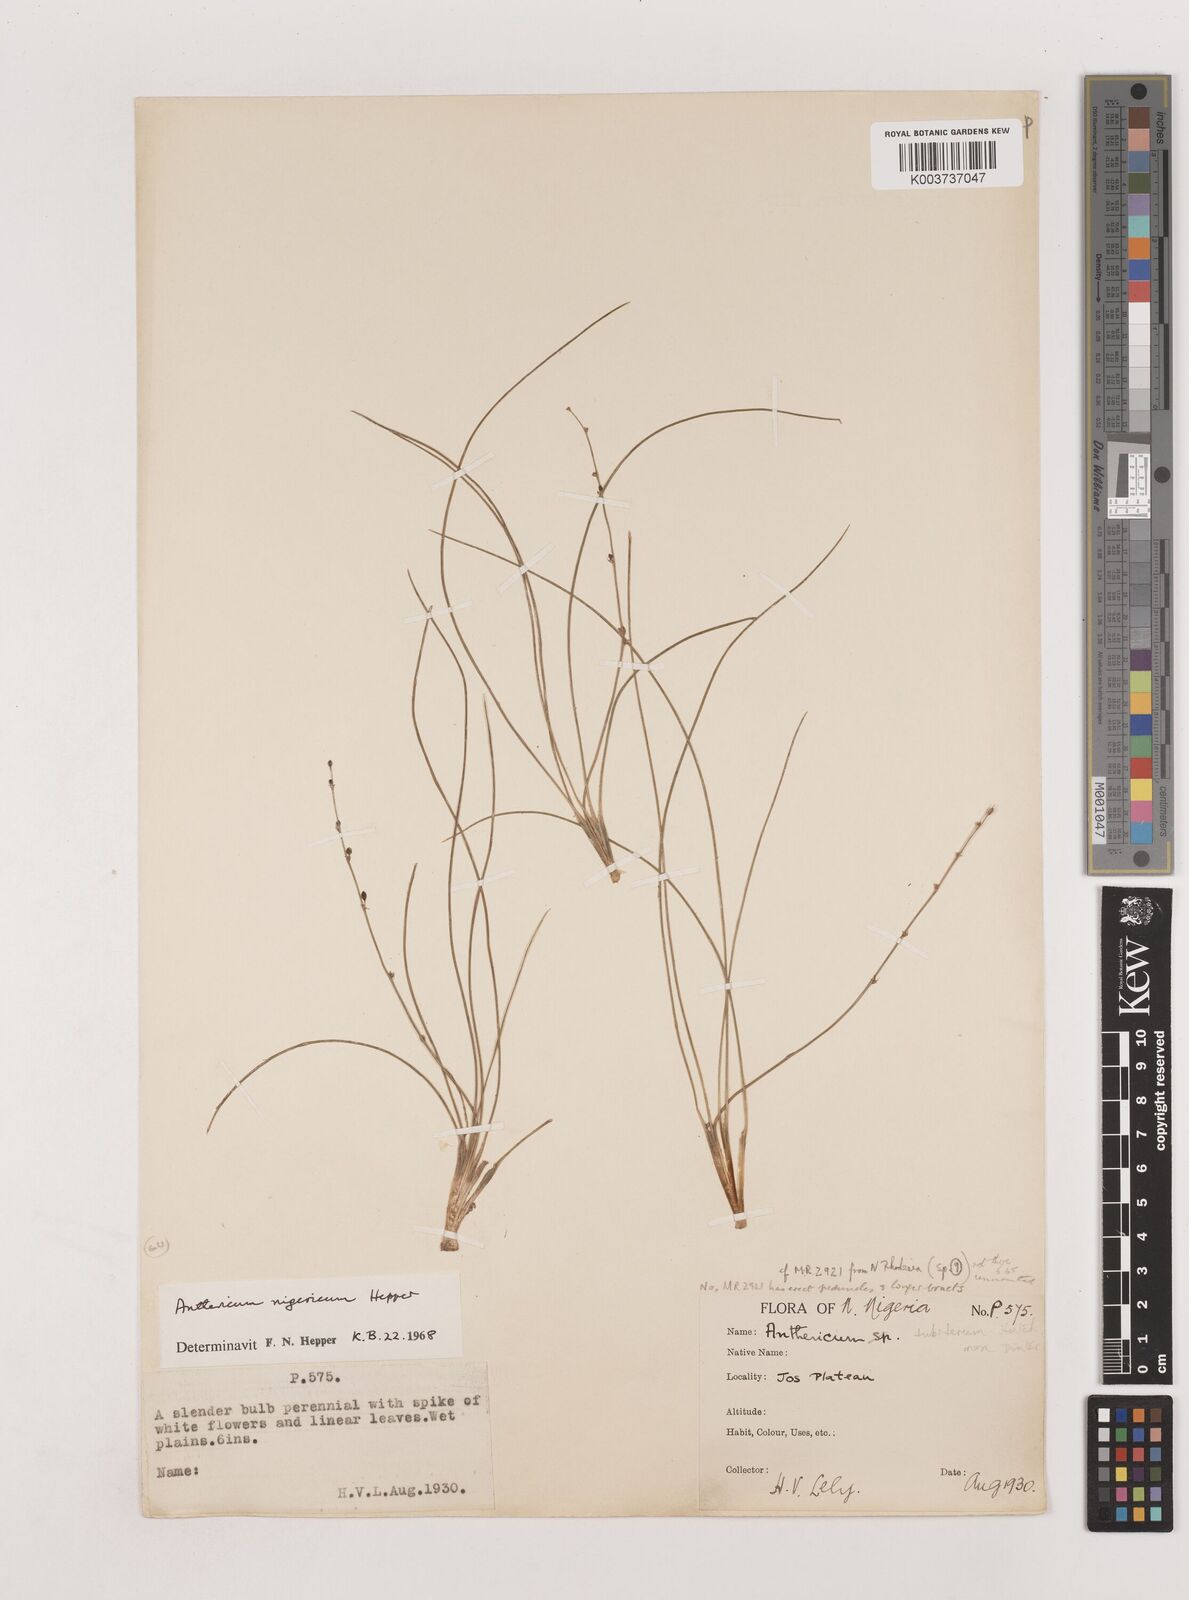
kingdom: Plantae
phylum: Tracheophyta
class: Liliopsida
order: Asparagales
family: Asparagaceae
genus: Chlorophytum
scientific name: Chlorophytum angustissimum
